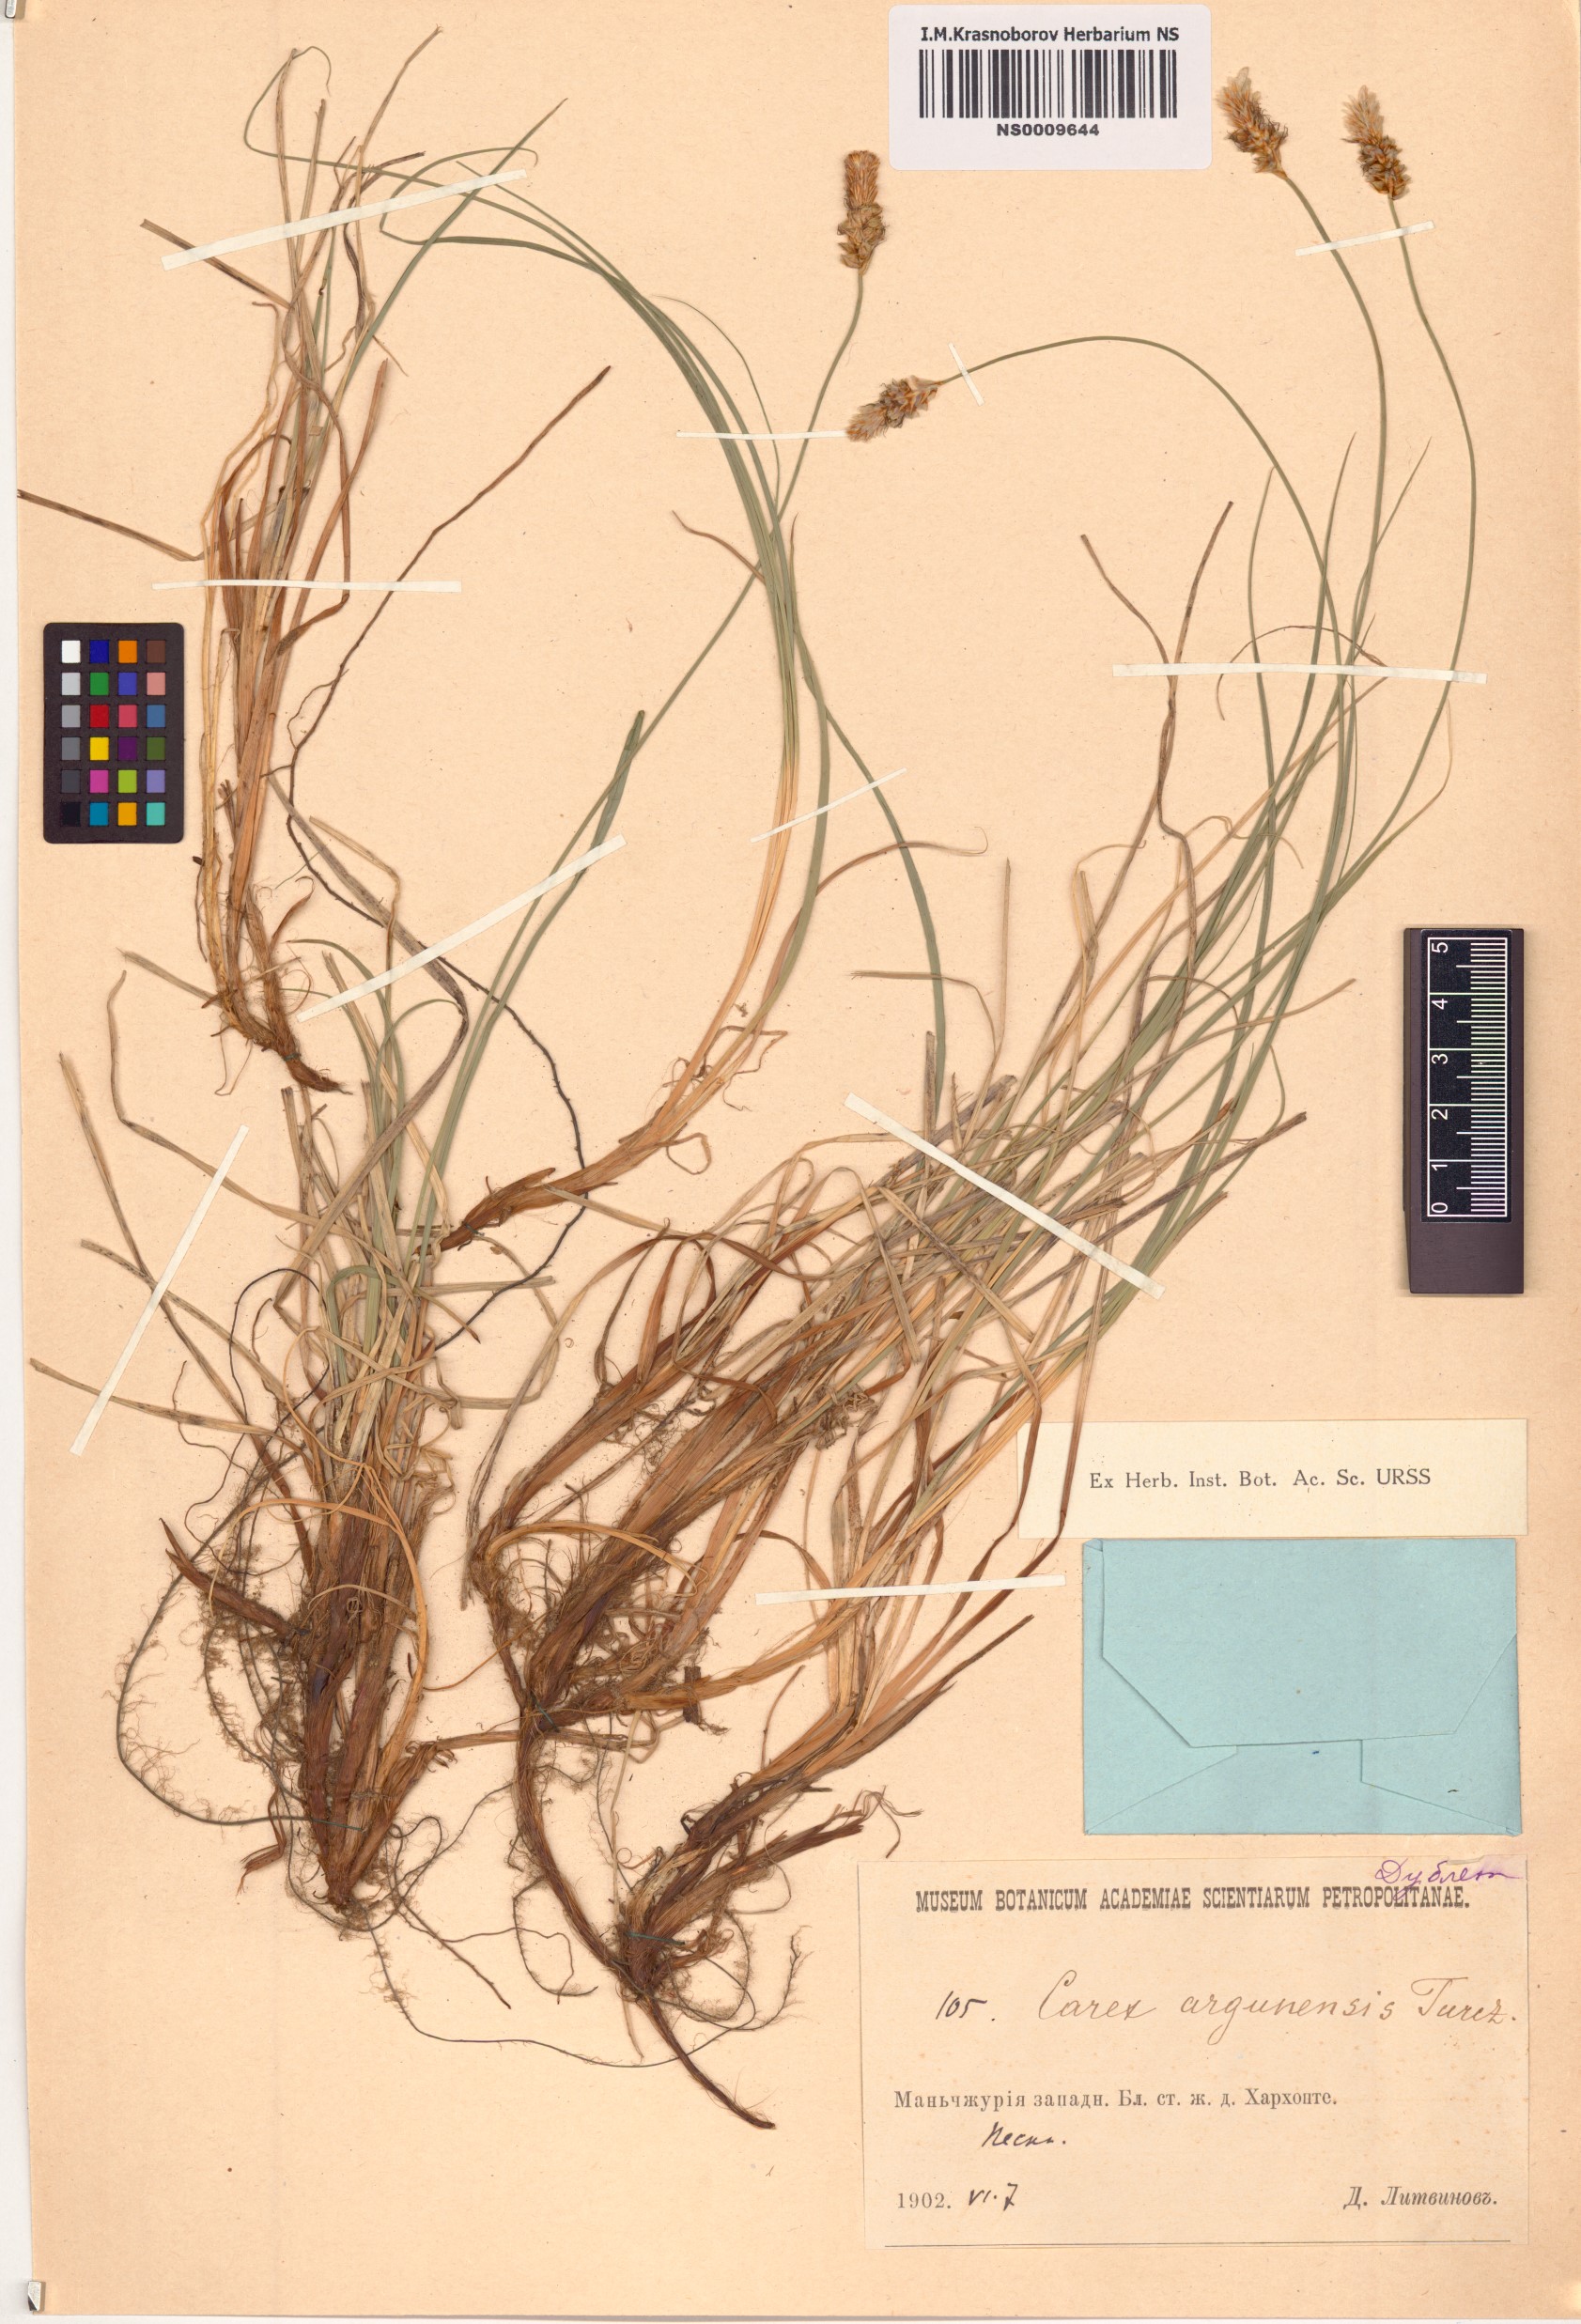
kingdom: Plantae
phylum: Tracheophyta
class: Liliopsida
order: Poales
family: Cyperaceae
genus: Carex
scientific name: Carex argunensis
